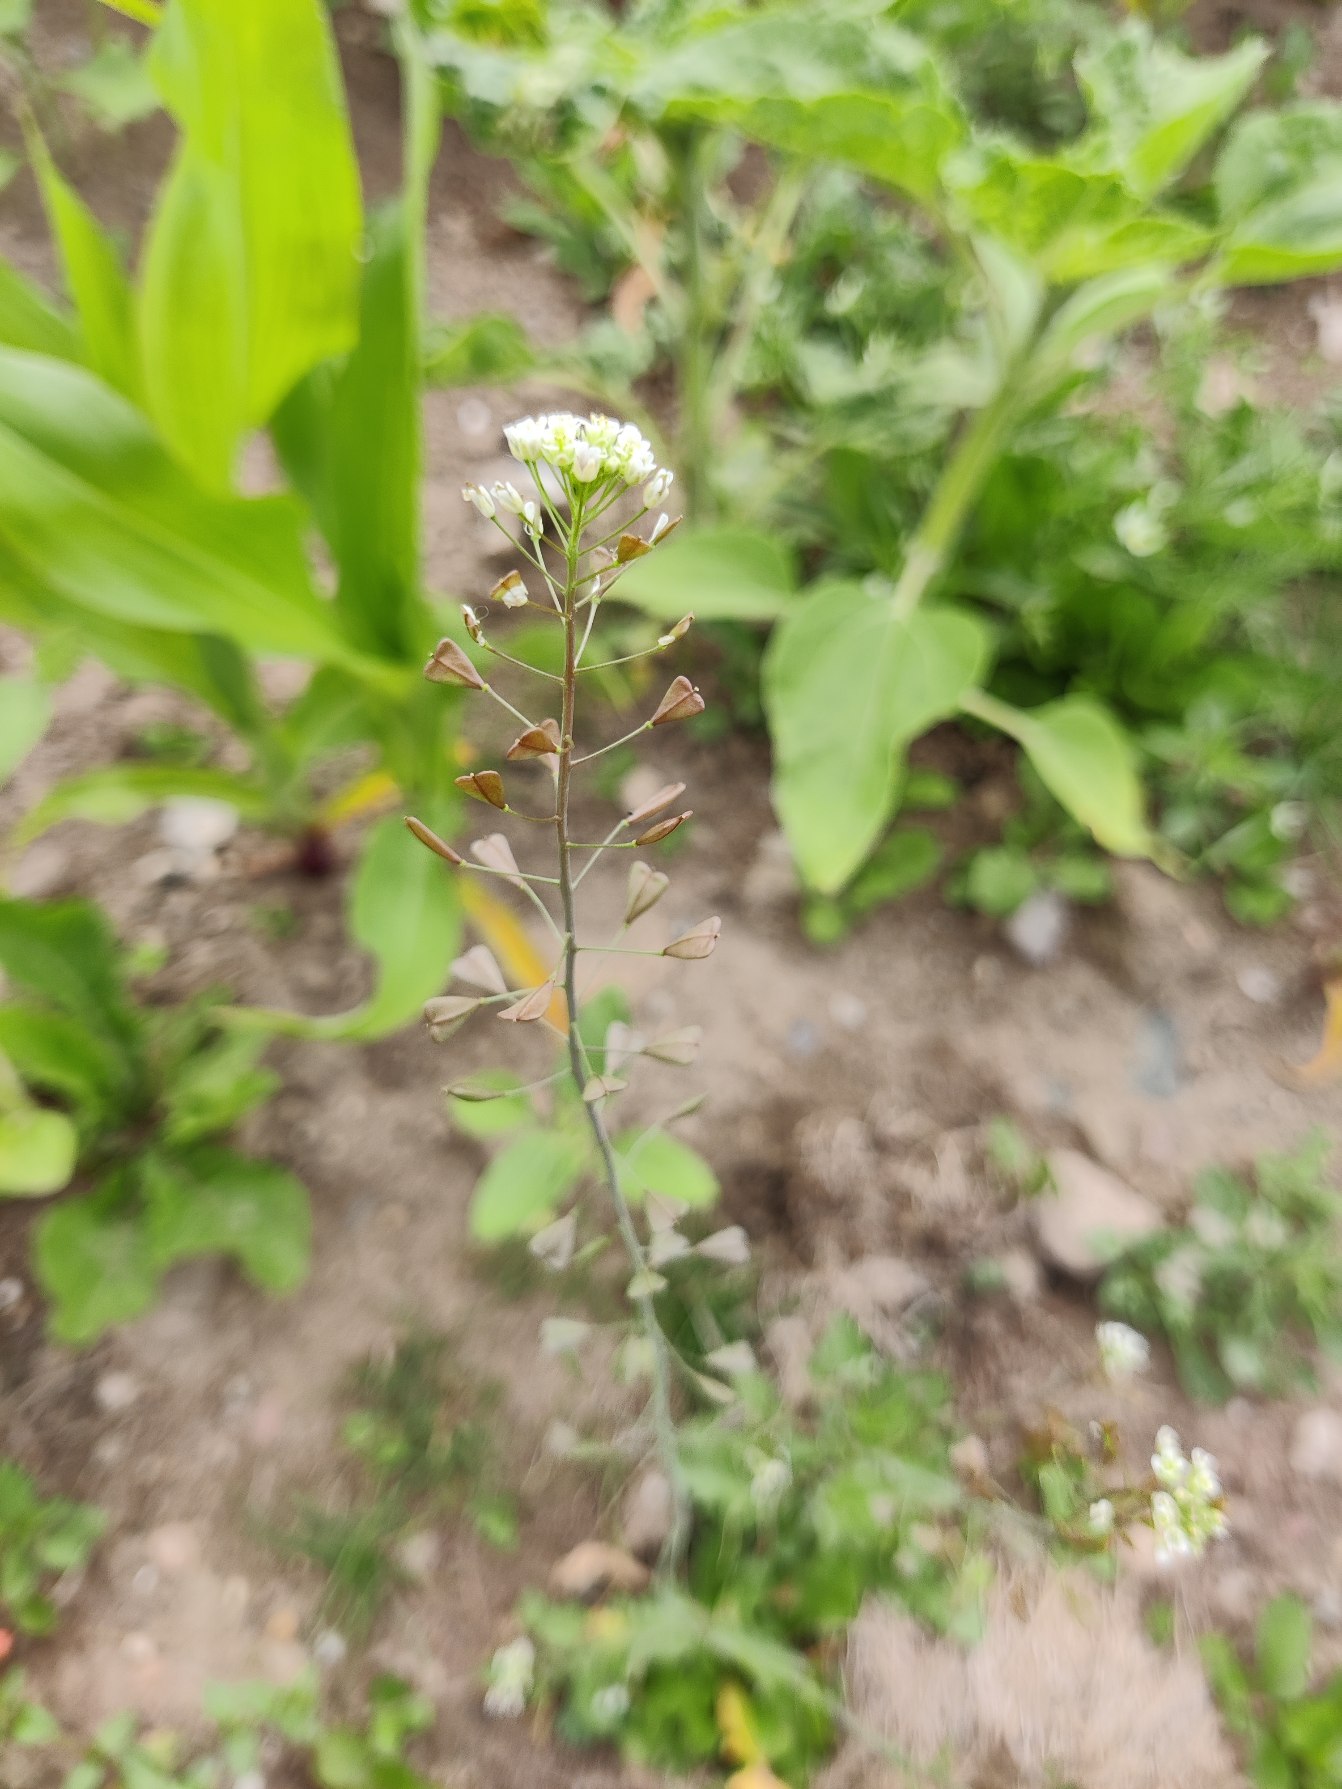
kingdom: Plantae
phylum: Tracheophyta
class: Magnoliopsida
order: Brassicales
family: Brassicaceae
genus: Capsella
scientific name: Capsella bursa-pastoris
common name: Hyrdetaske
